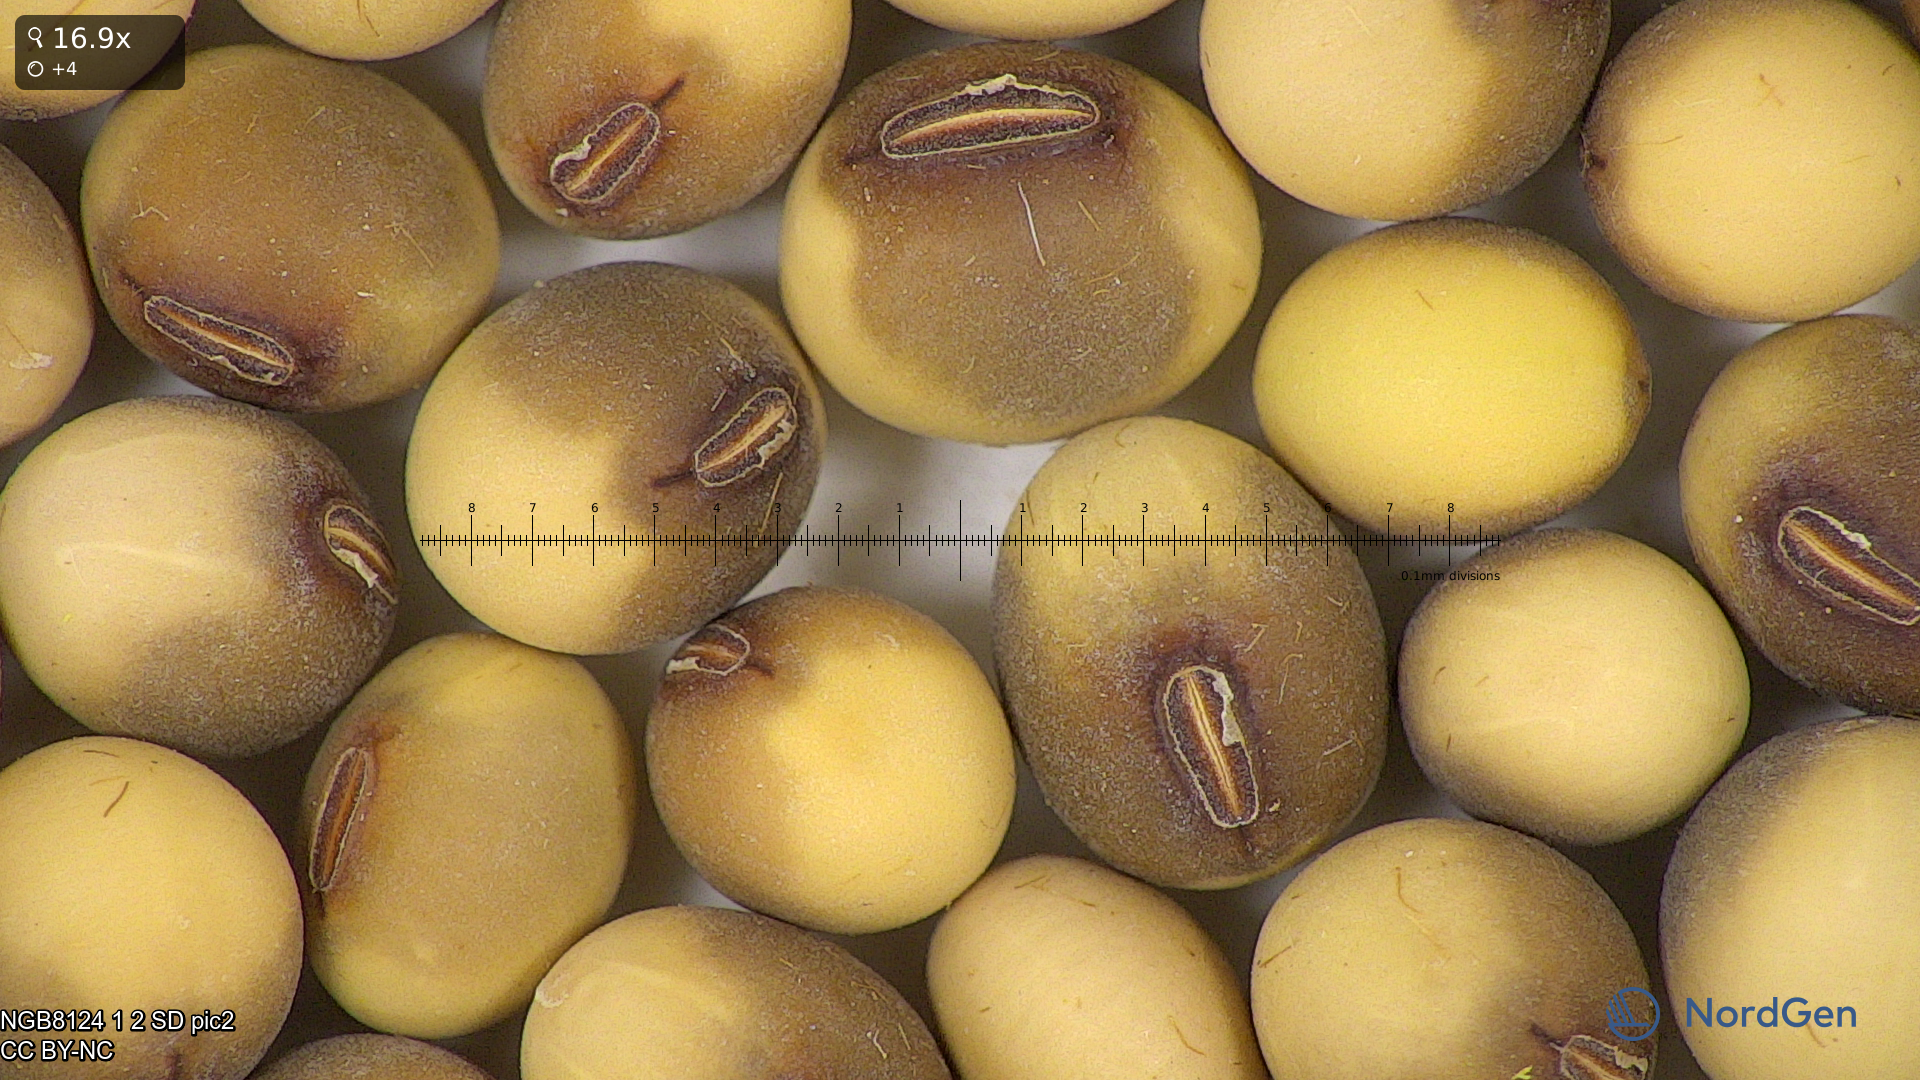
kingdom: Plantae
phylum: Tracheophyta
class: Magnoliopsida
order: Fabales
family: Fabaceae
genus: Glycine
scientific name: Glycine max
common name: Soya-bean
